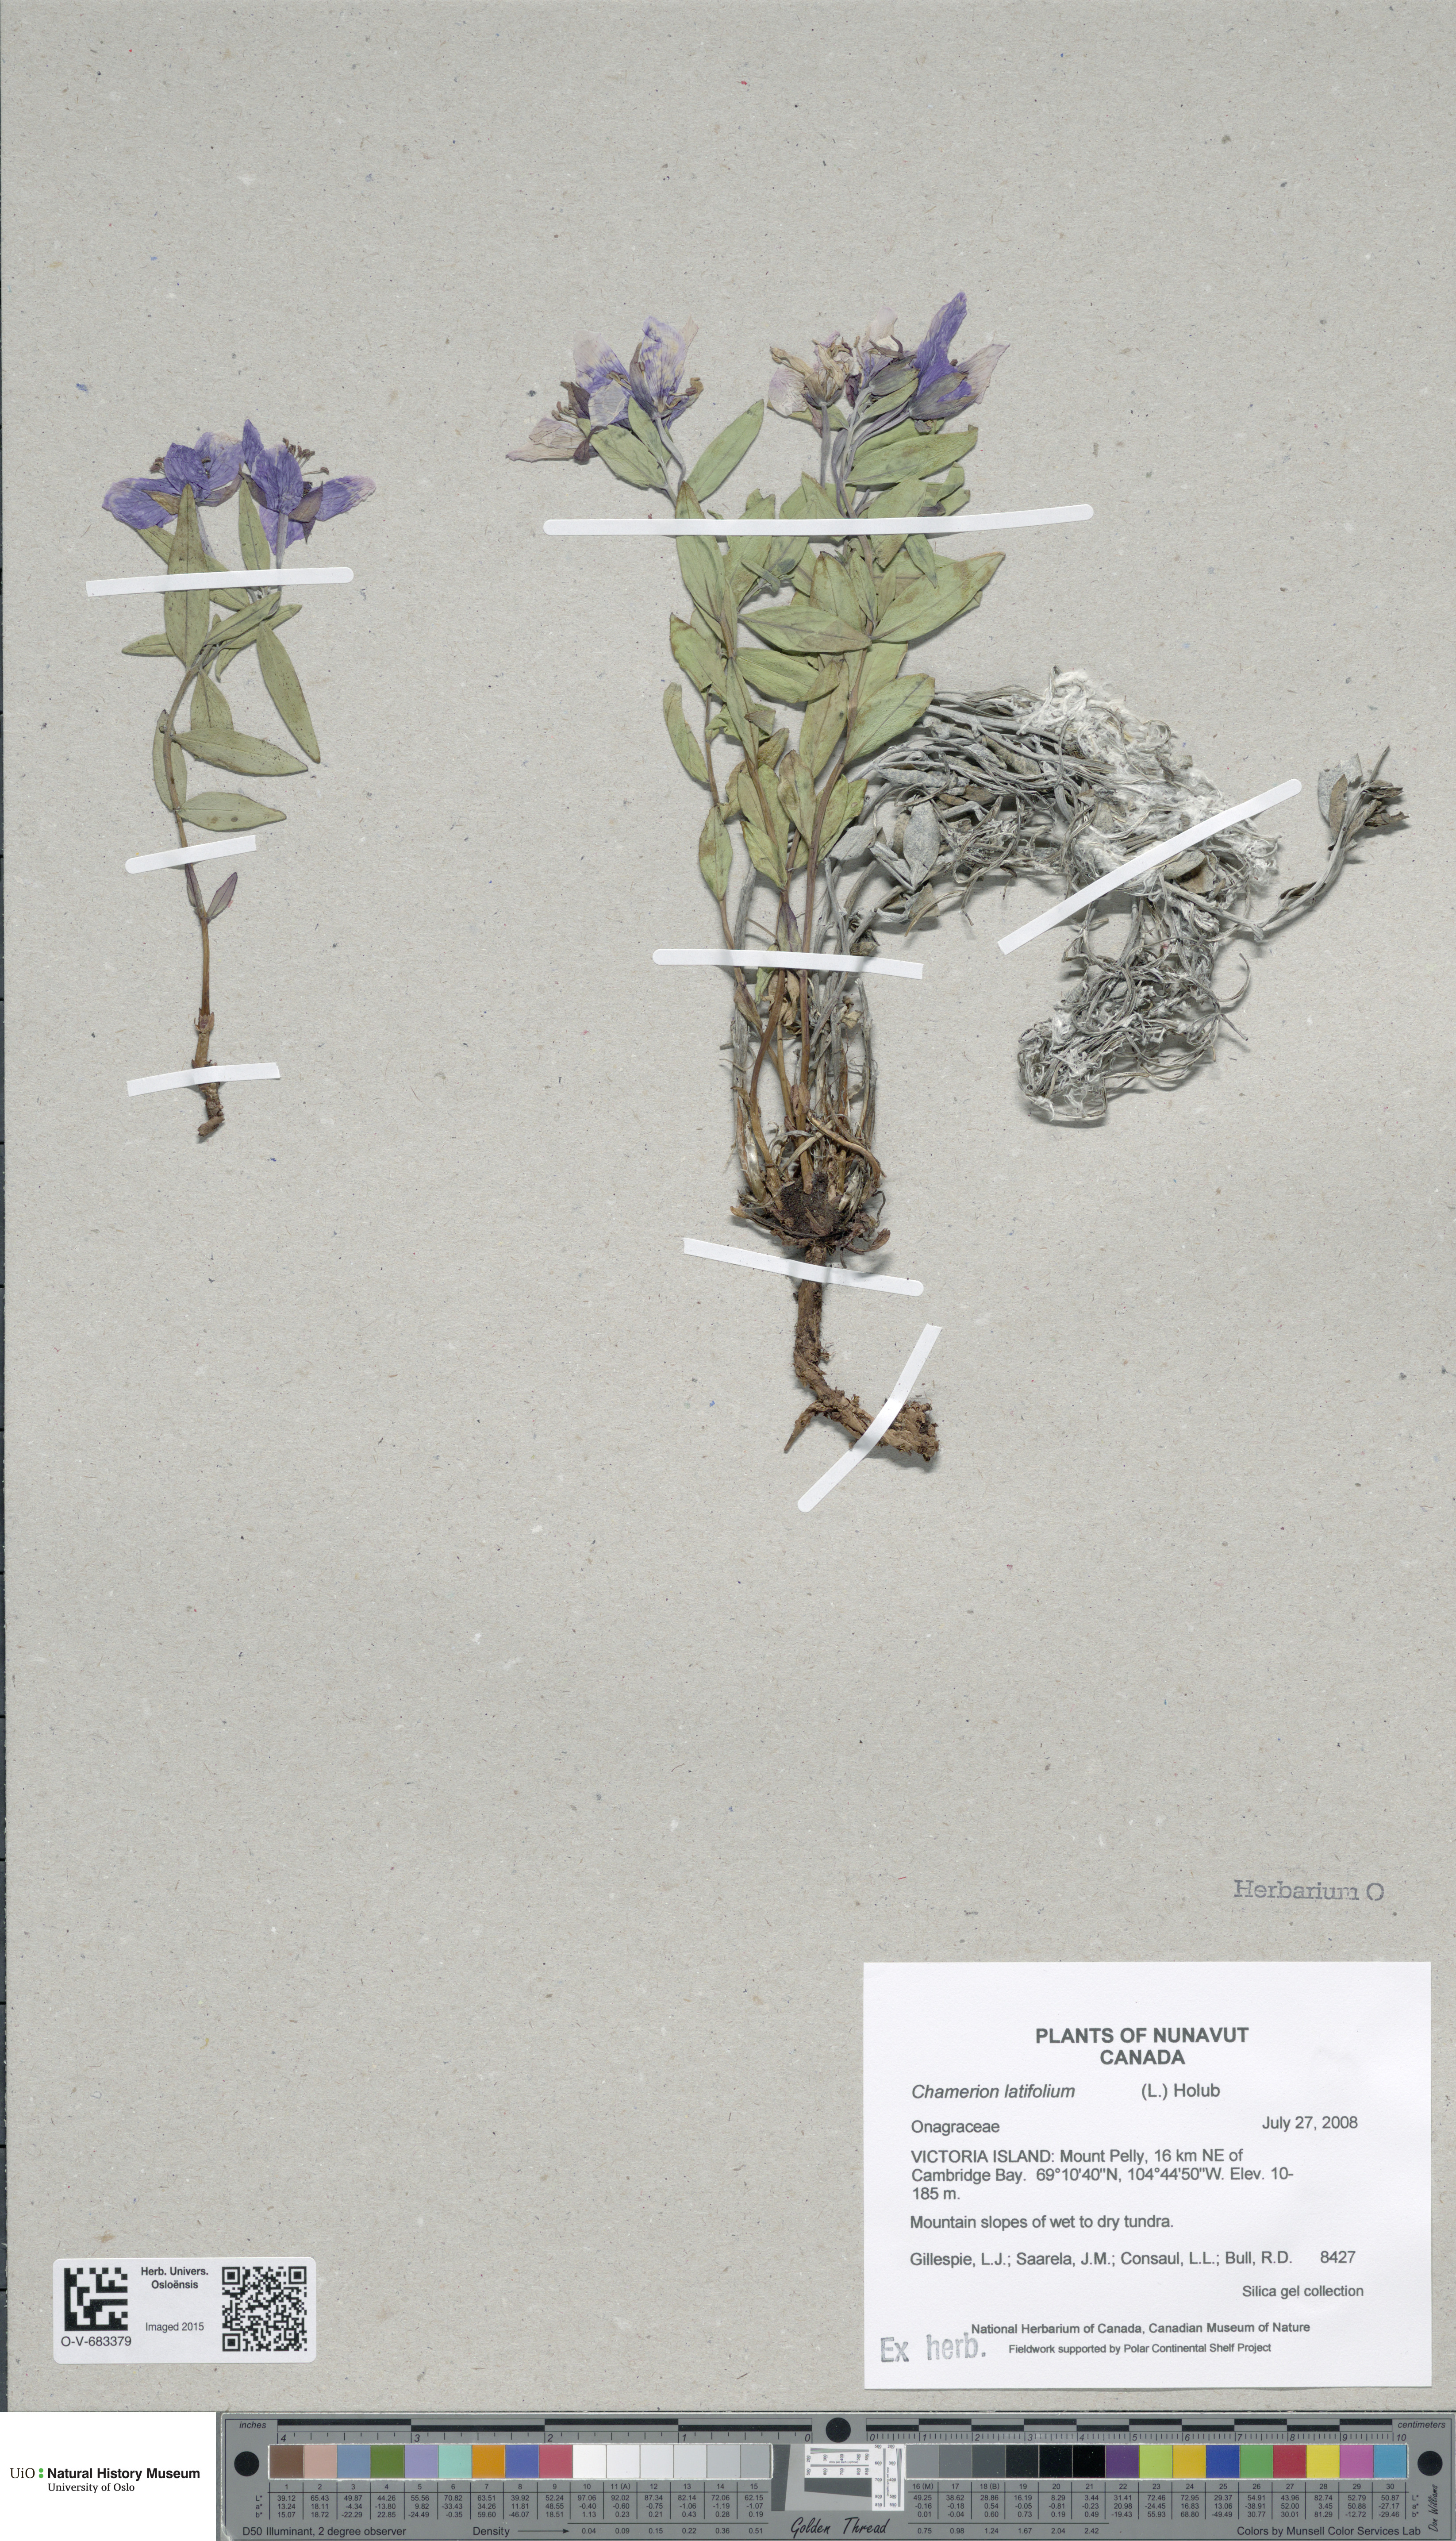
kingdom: Plantae
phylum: Tracheophyta
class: Magnoliopsida
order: Myrtales
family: Onagraceae
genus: Chamaenerion
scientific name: Chamaenerion latifolium
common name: Dwarf fireweed
